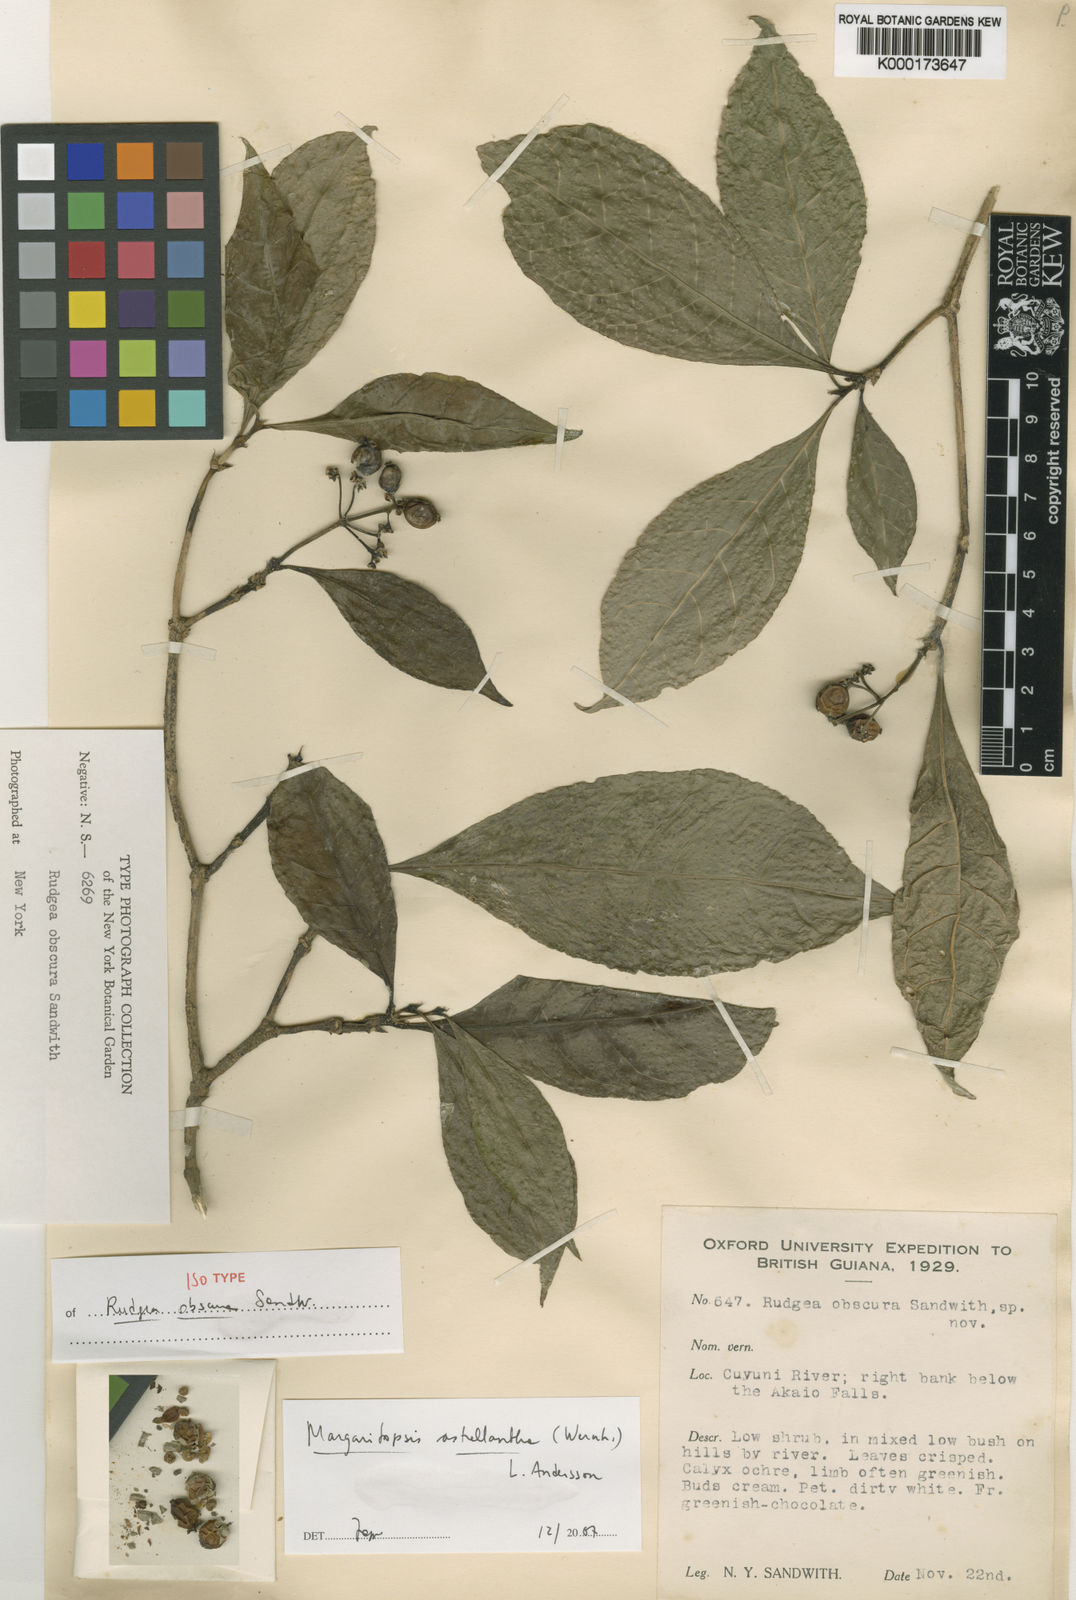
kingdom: Plantae
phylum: Tracheophyta
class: Magnoliopsida
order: Gentianales
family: Rubiaceae
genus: Eumachia
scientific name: Eumachia astrellantha
